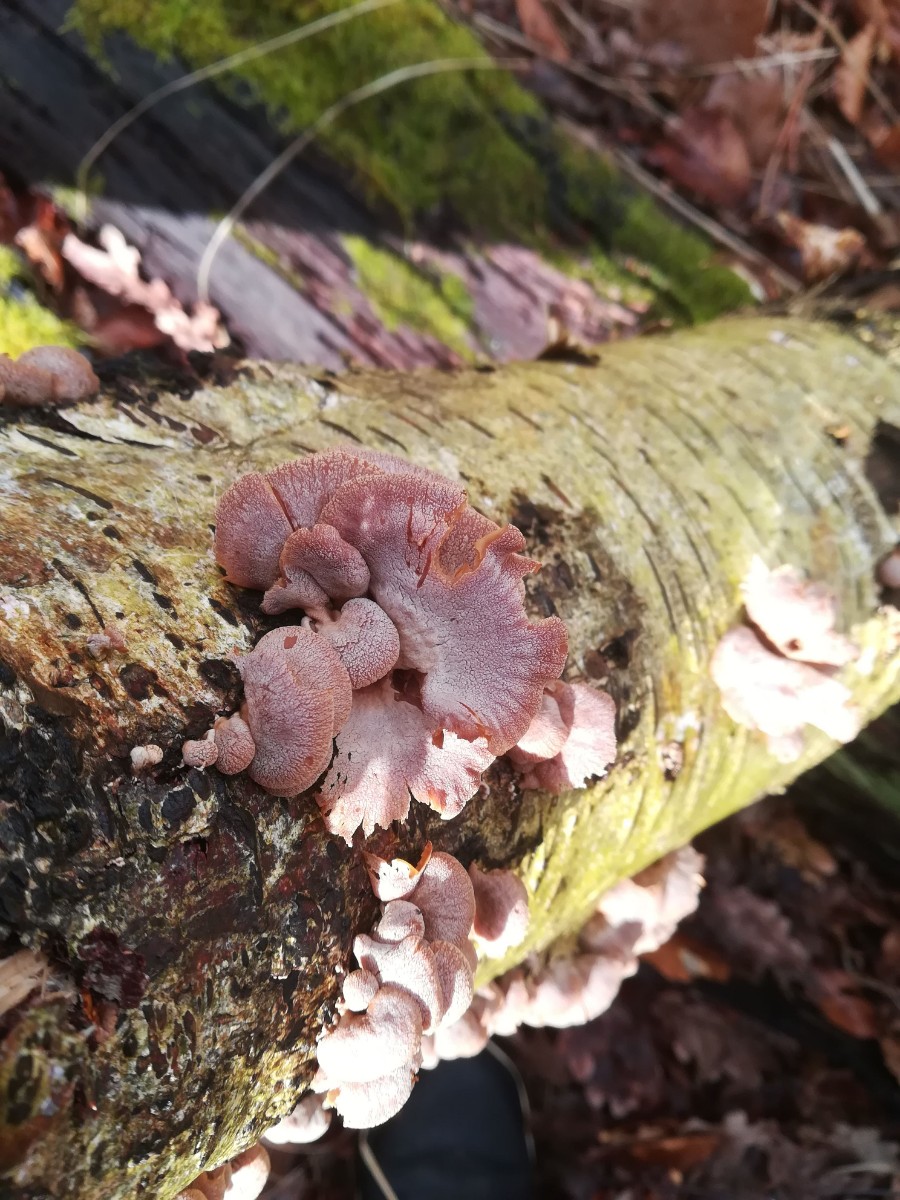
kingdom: Fungi
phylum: Basidiomycota
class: Agaricomycetes
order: Agaricales
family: Mycenaceae
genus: Panellus
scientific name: Panellus stipticus
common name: kliddet epaulethat
